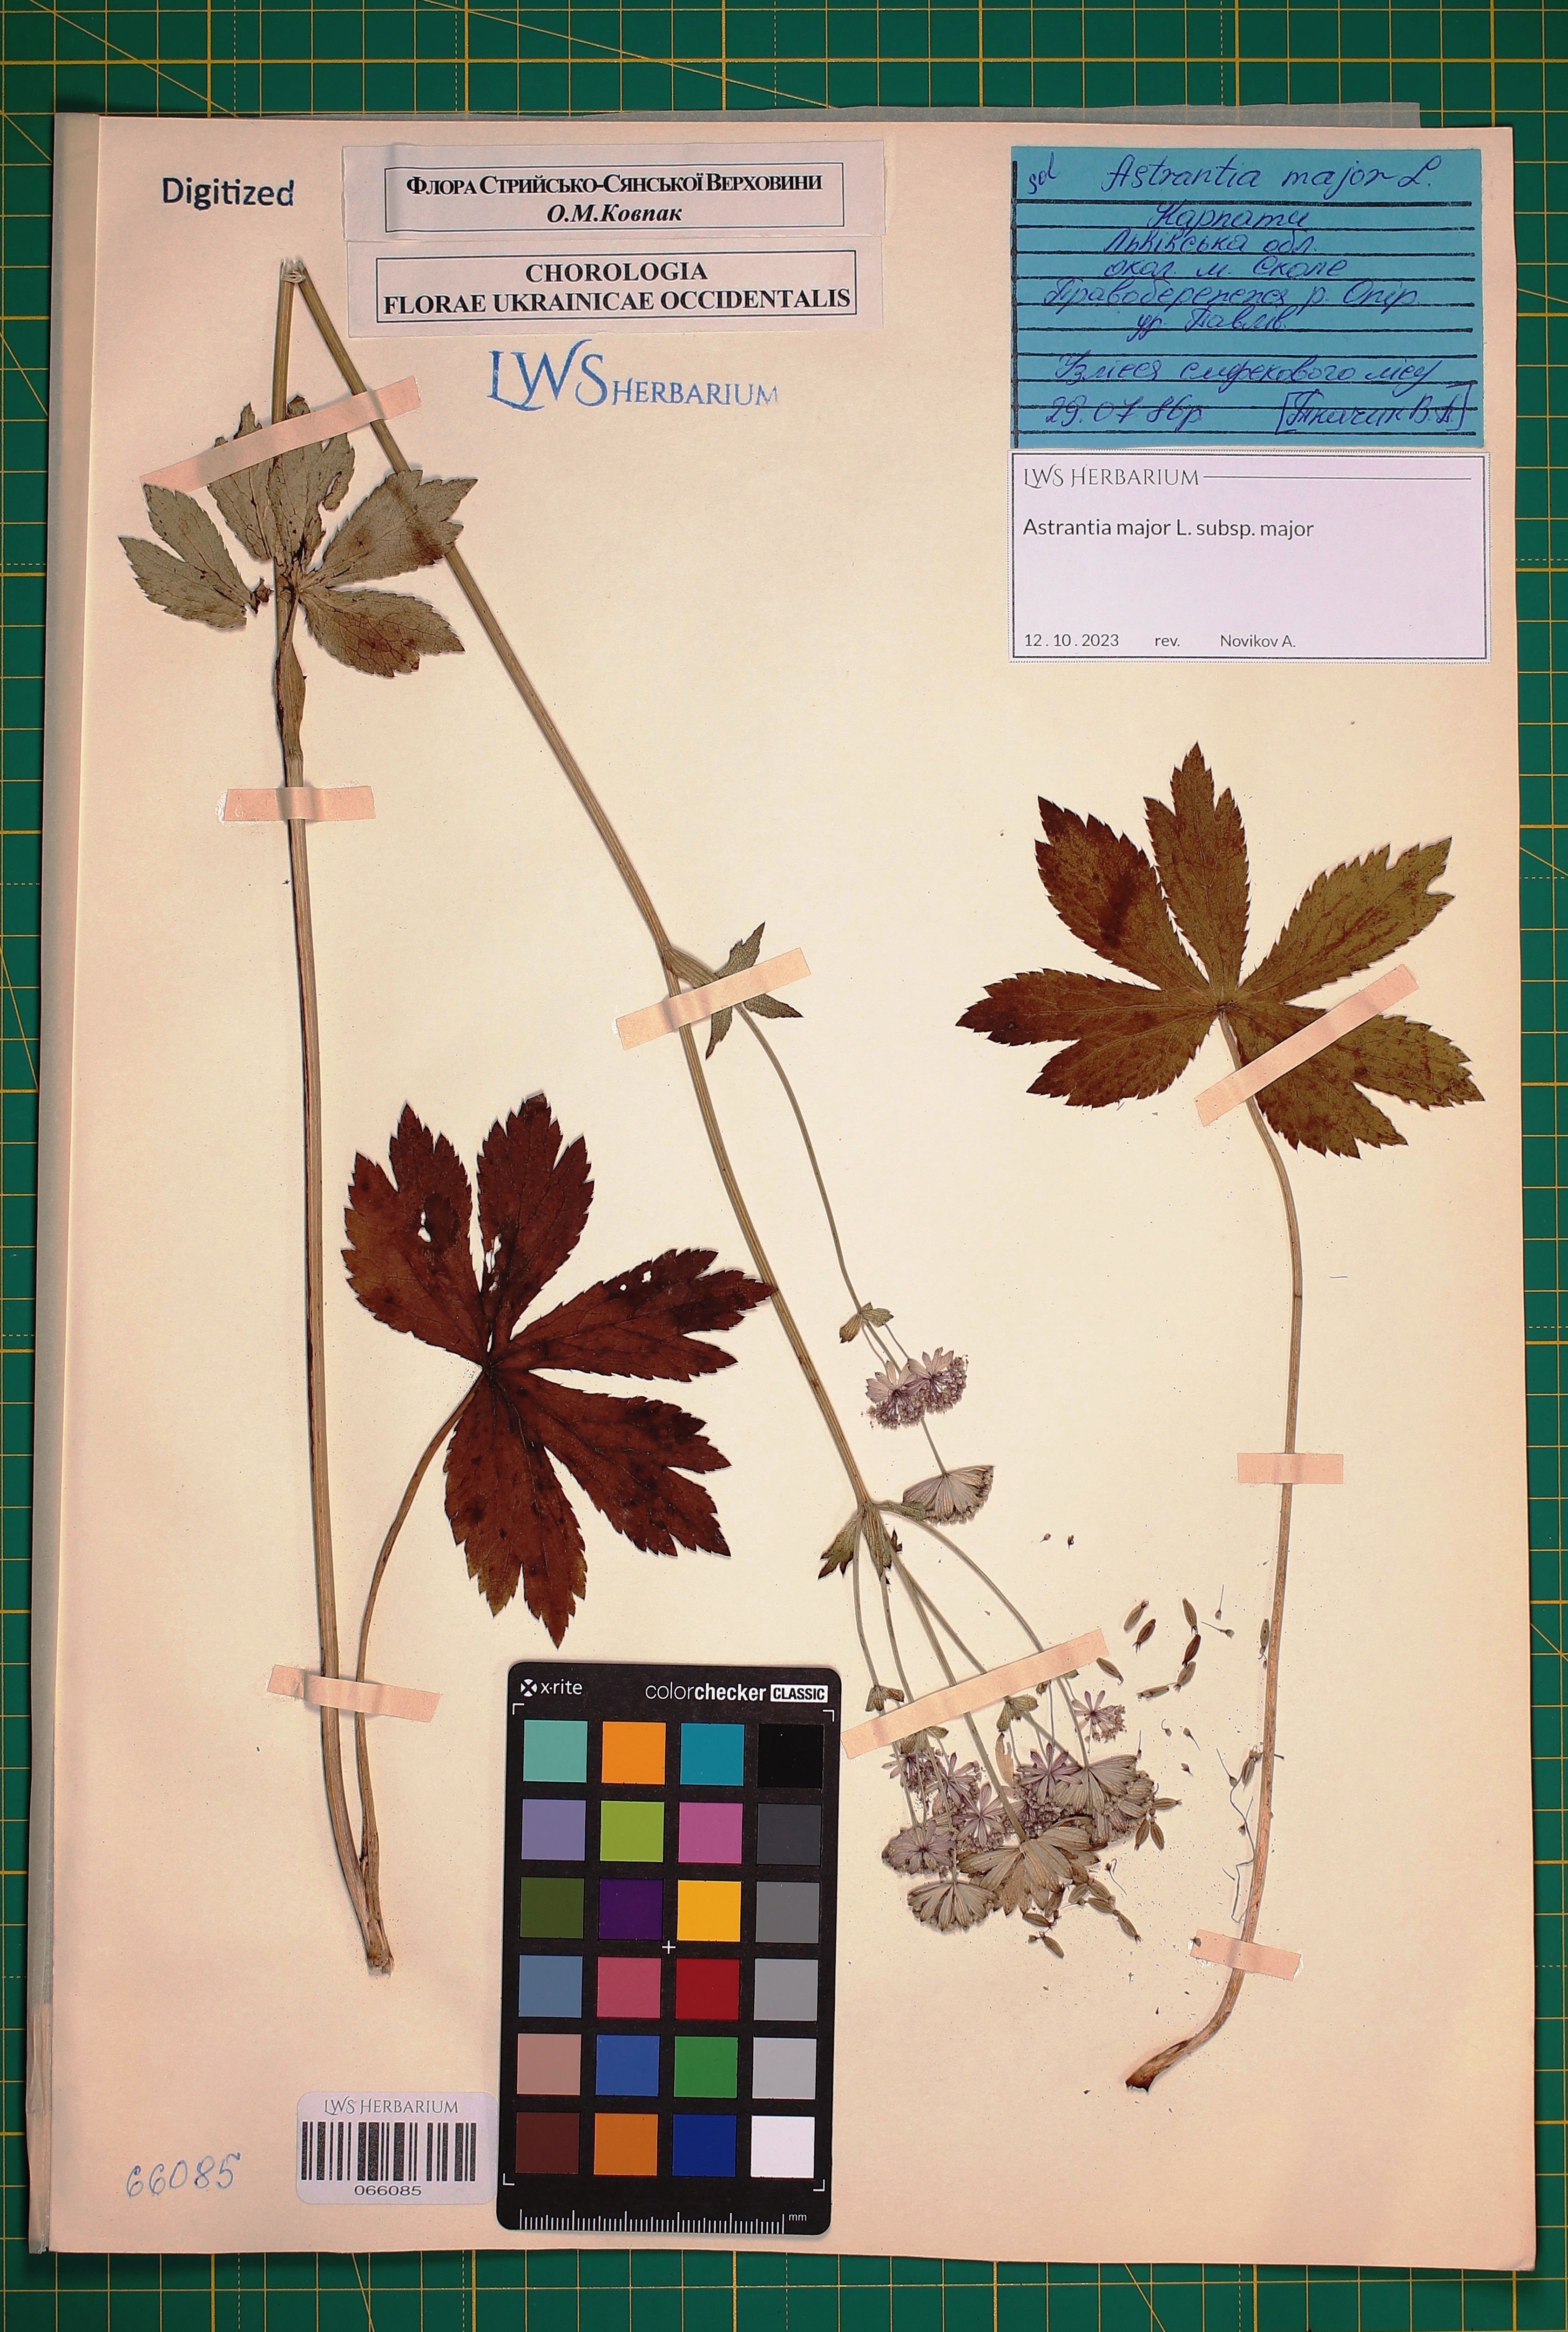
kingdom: Plantae
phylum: Tracheophyta
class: Magnoliopsida
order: Apiales
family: Apiaceae
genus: Astrantia
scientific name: Astrantia major
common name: Greater masterwort
